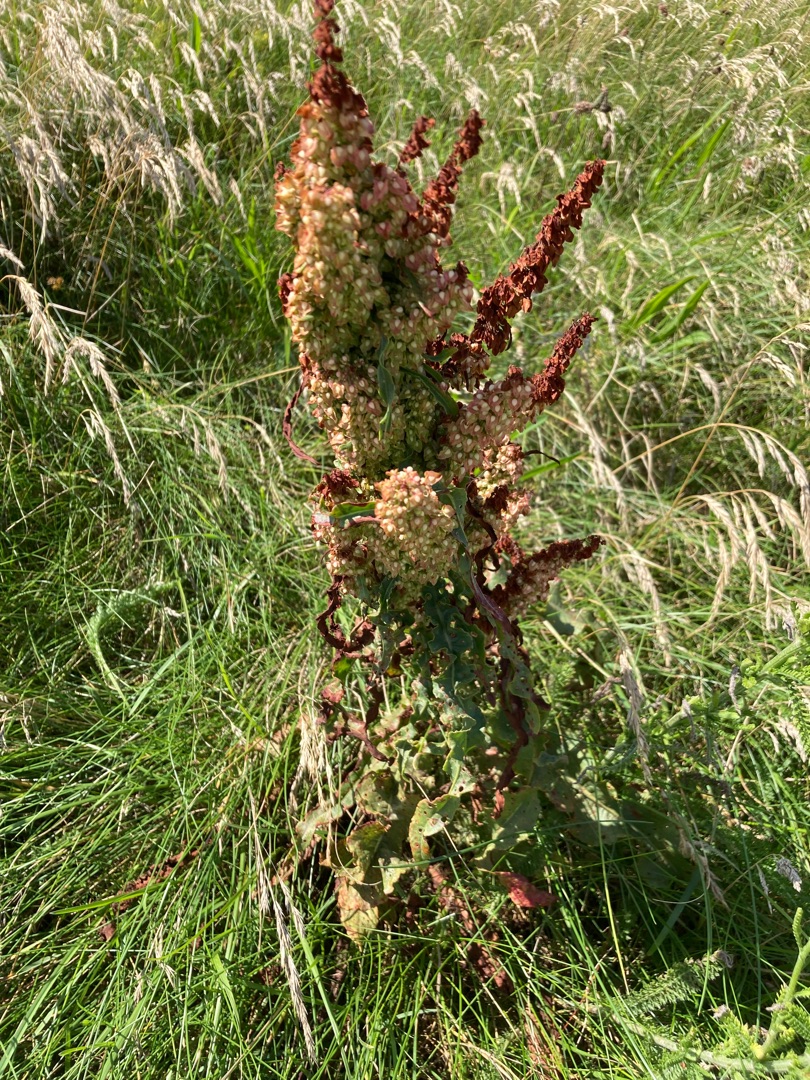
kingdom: Plantae
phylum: Tracheophyta
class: Magnoliopsida
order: Caryophyllales
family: Polygonaceae
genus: Rumex
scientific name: Rumex crispus
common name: Kruset skræppe
